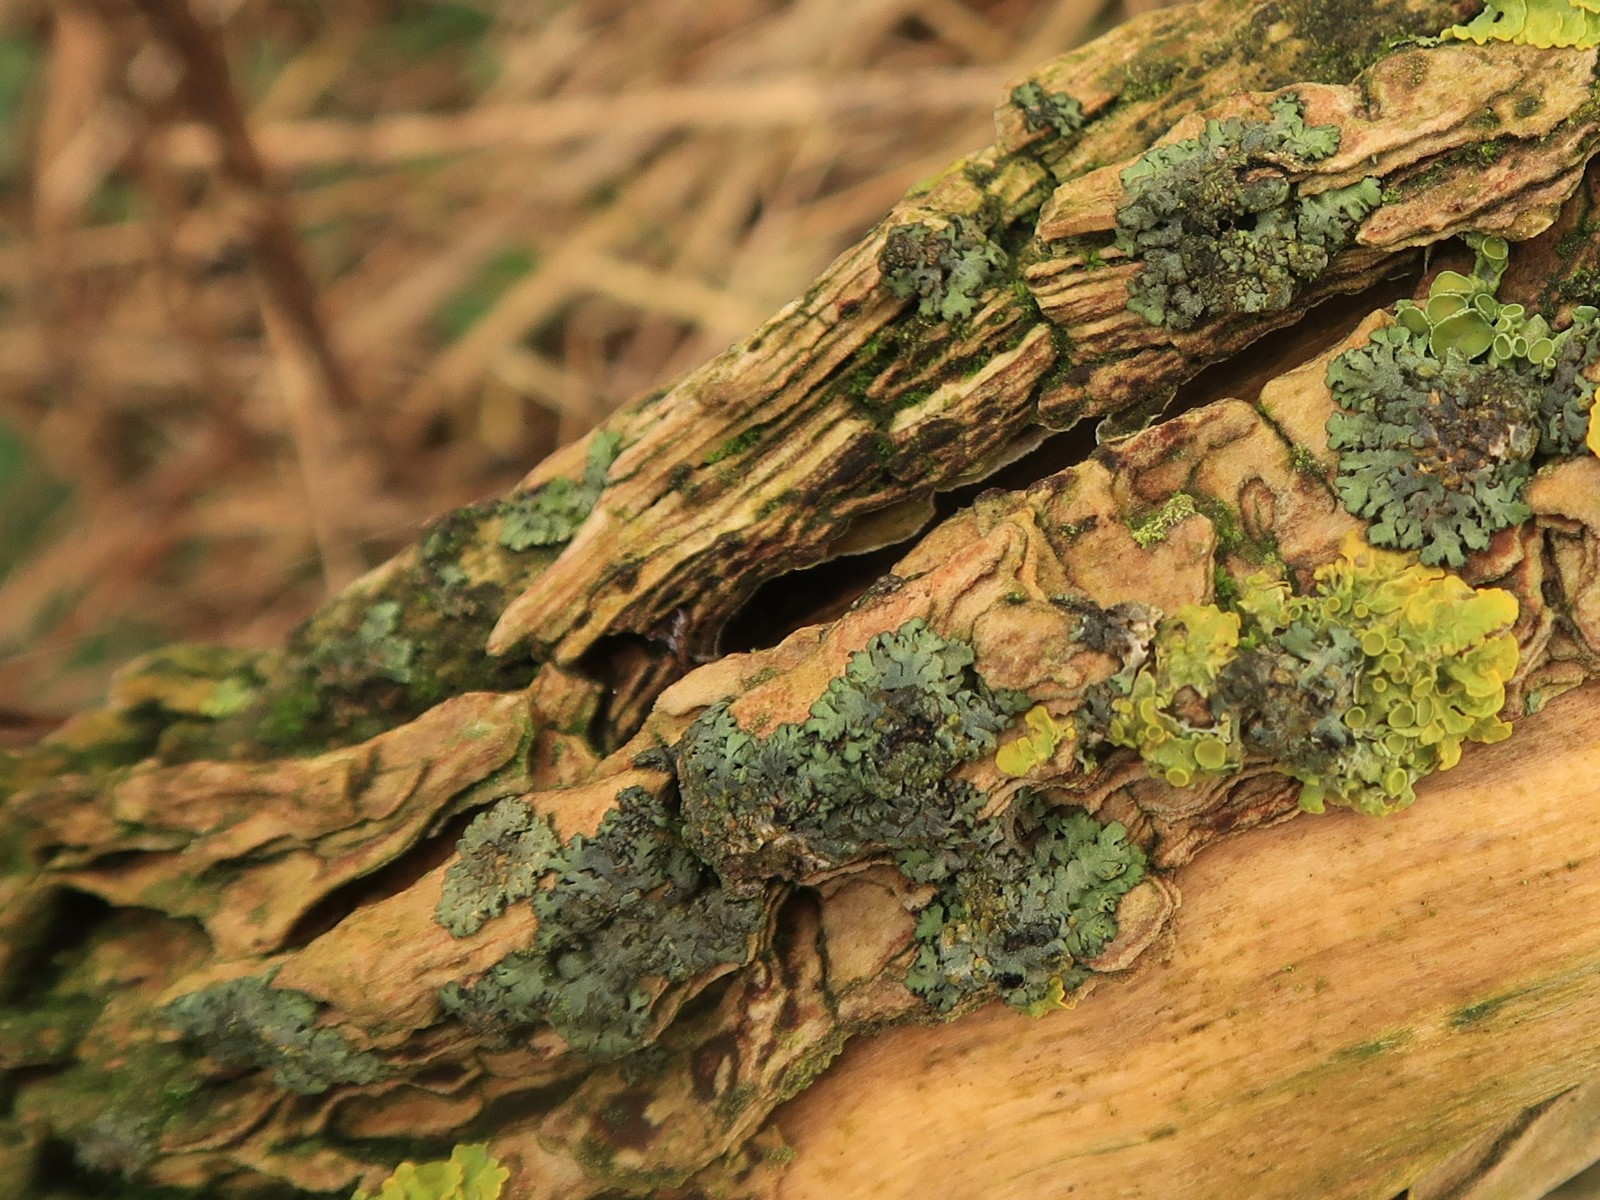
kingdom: Fungi
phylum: Ascomycota
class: Lecanoromycetes
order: Caliciales
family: Physciaceae
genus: Phaeophyscia
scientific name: Phaeophyscia orbicularis
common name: grågrøn rosetlav
